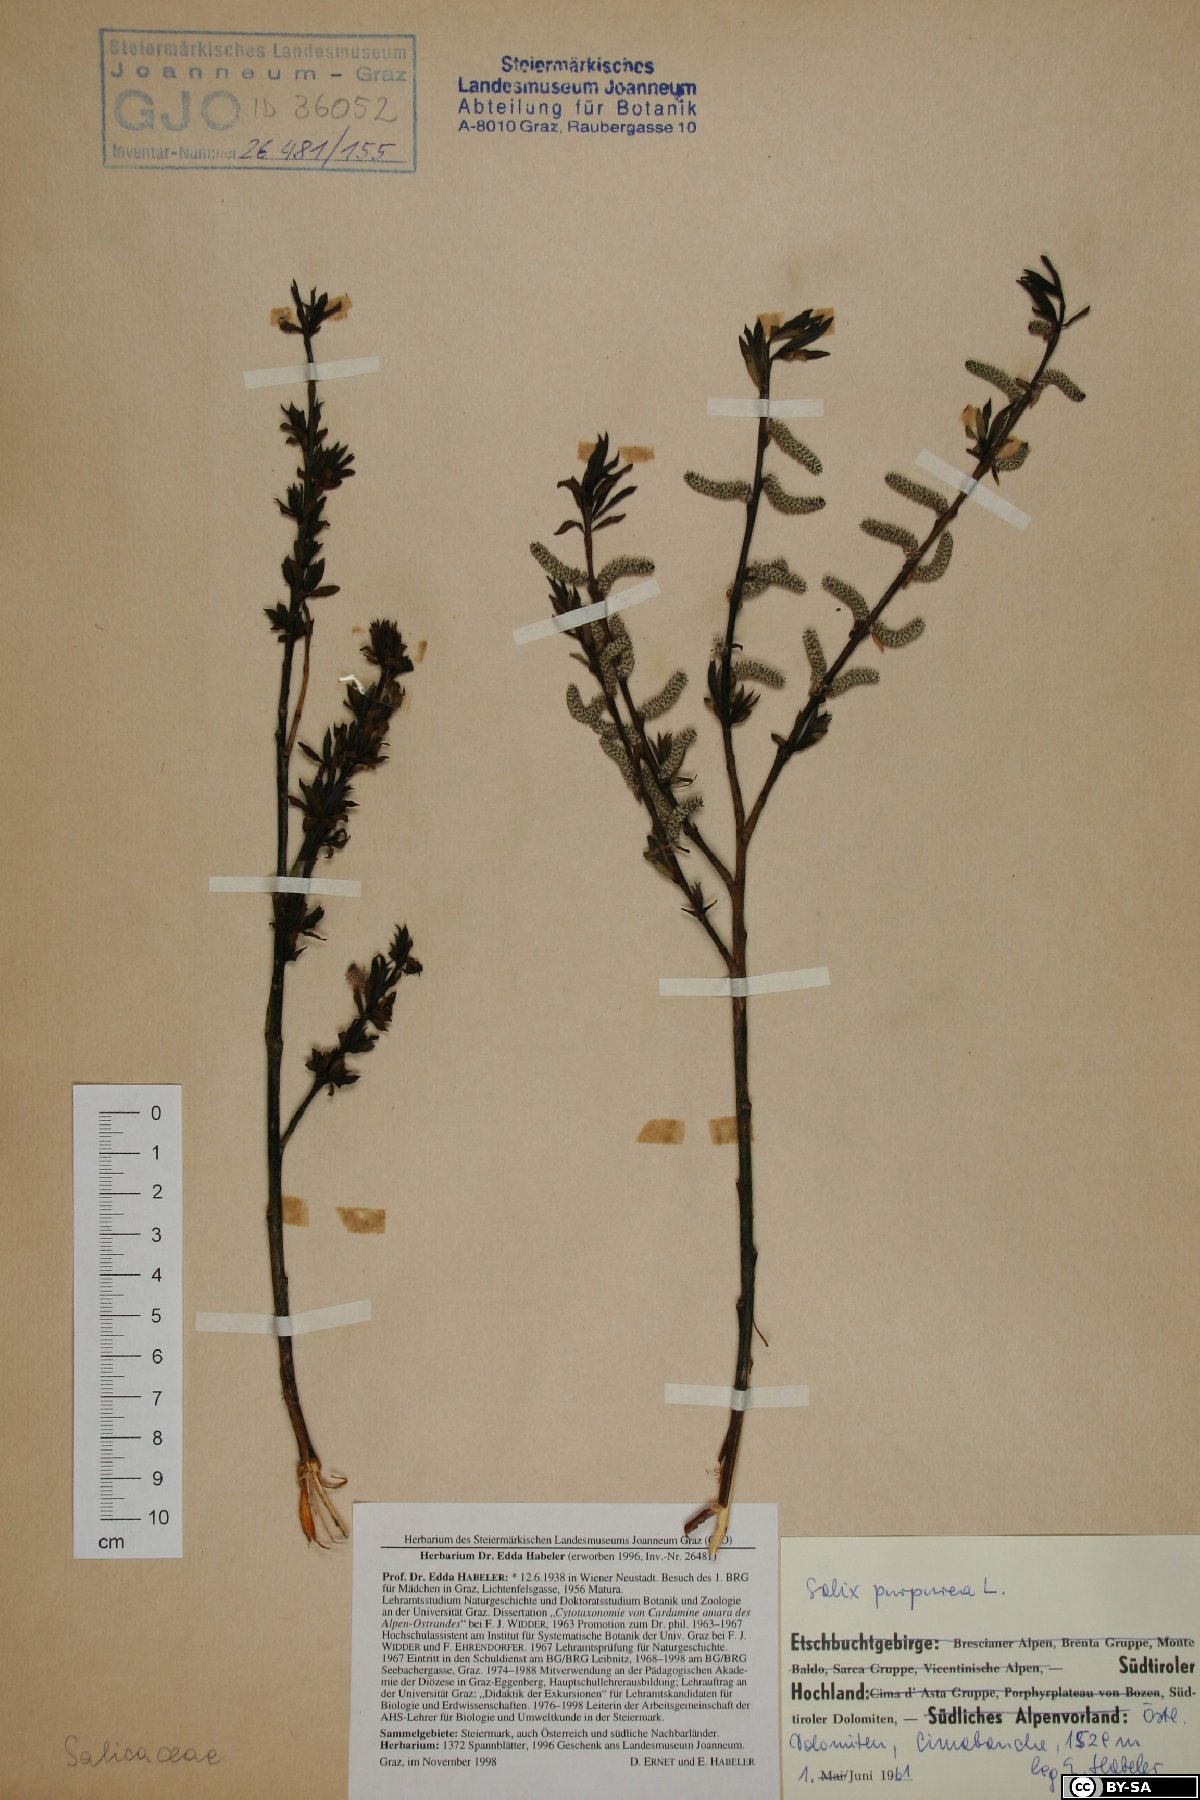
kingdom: Plantae
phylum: Tracheophyta
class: Magnoliopsida
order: Malpighiales
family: Salicaceae
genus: Salix
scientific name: Salix purpurea
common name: Purple willow
